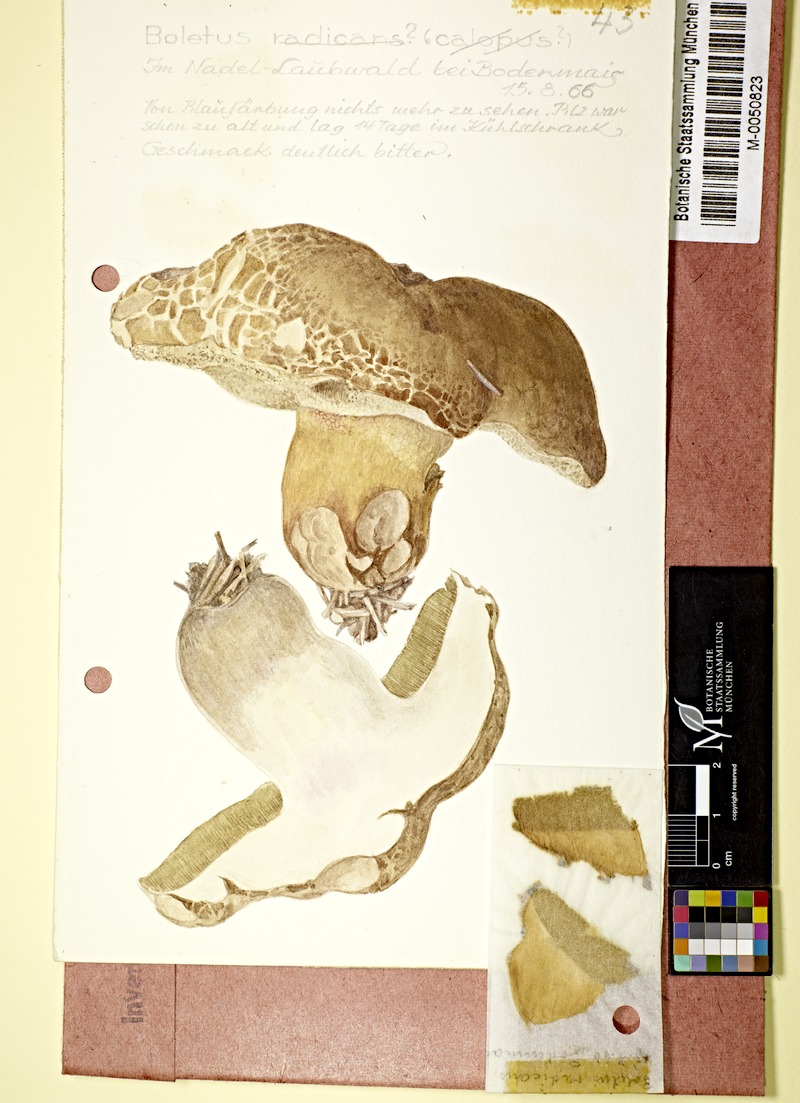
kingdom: Fungi
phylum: Basidiomycota
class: Agaricomycetes
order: Boletales
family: Boletaceae
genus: Caloboletus
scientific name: Caloboletus radicans
